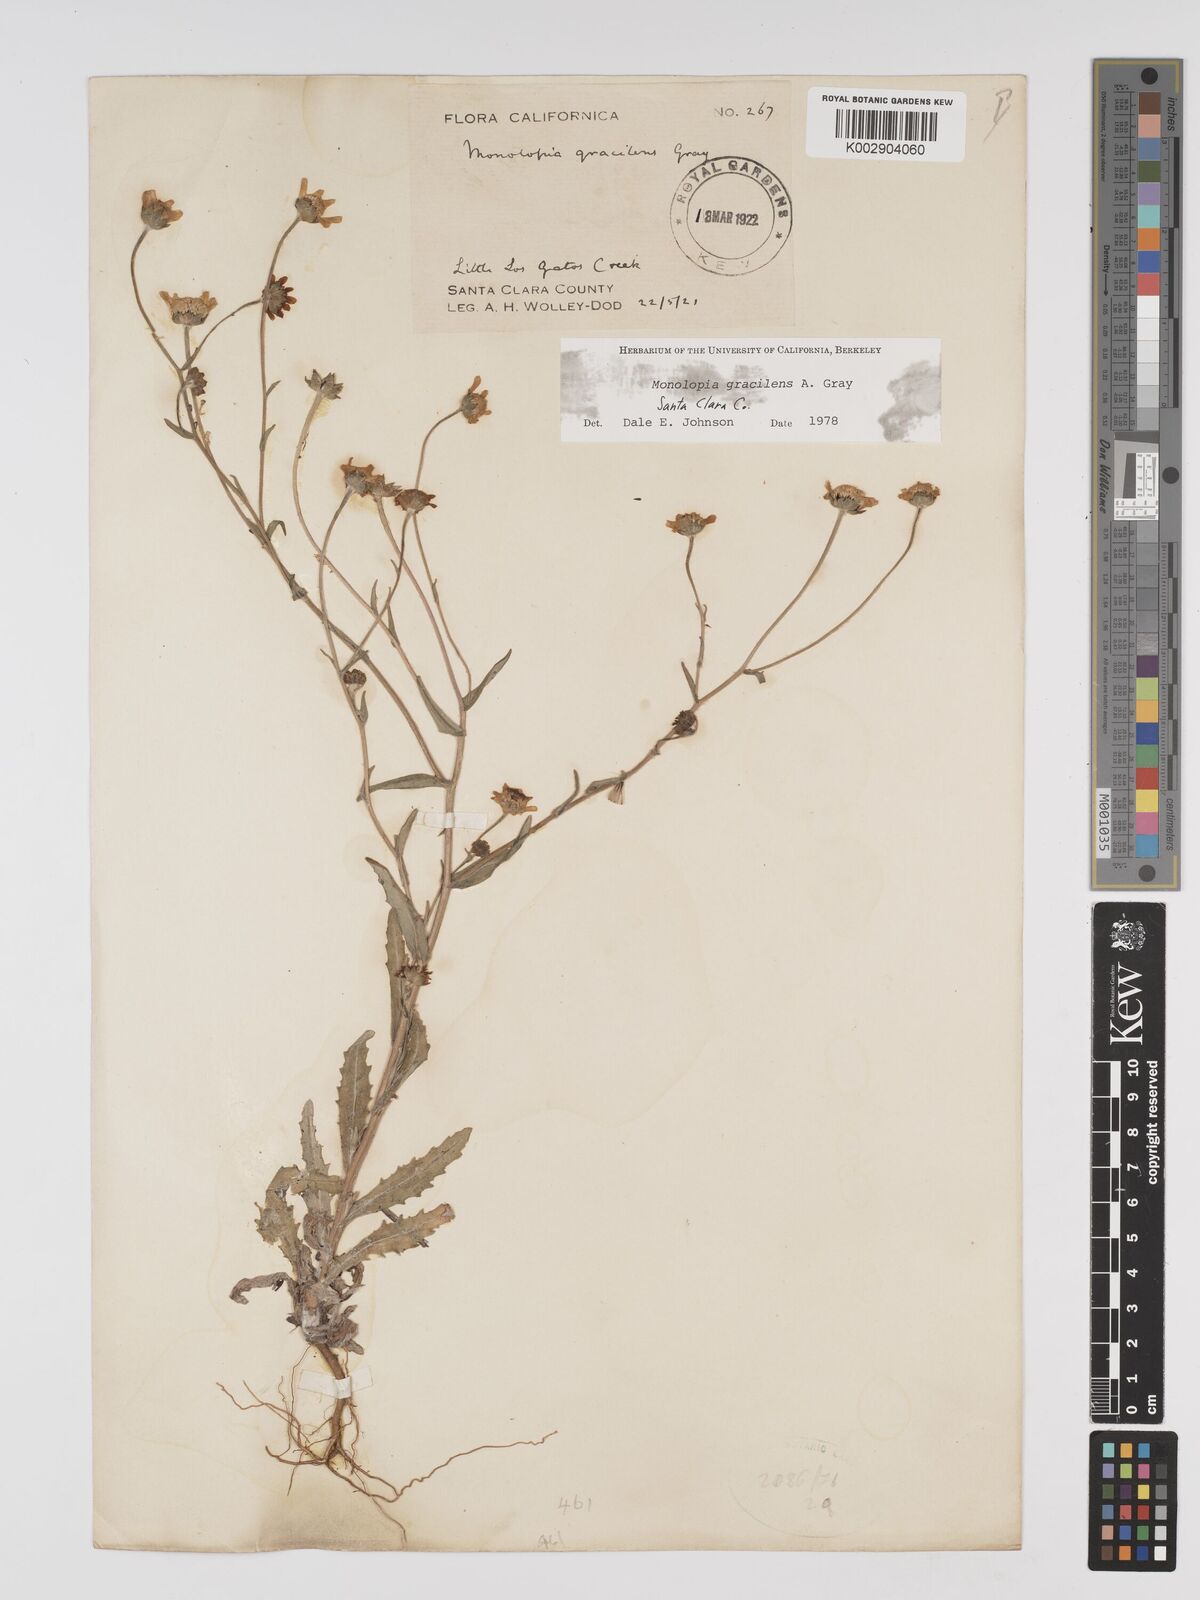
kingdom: Plantae
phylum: Tracheophyta
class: Magnoliopsida
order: Asterales
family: Asteraceae
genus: Monolopia
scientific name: Monolopia gracilens
